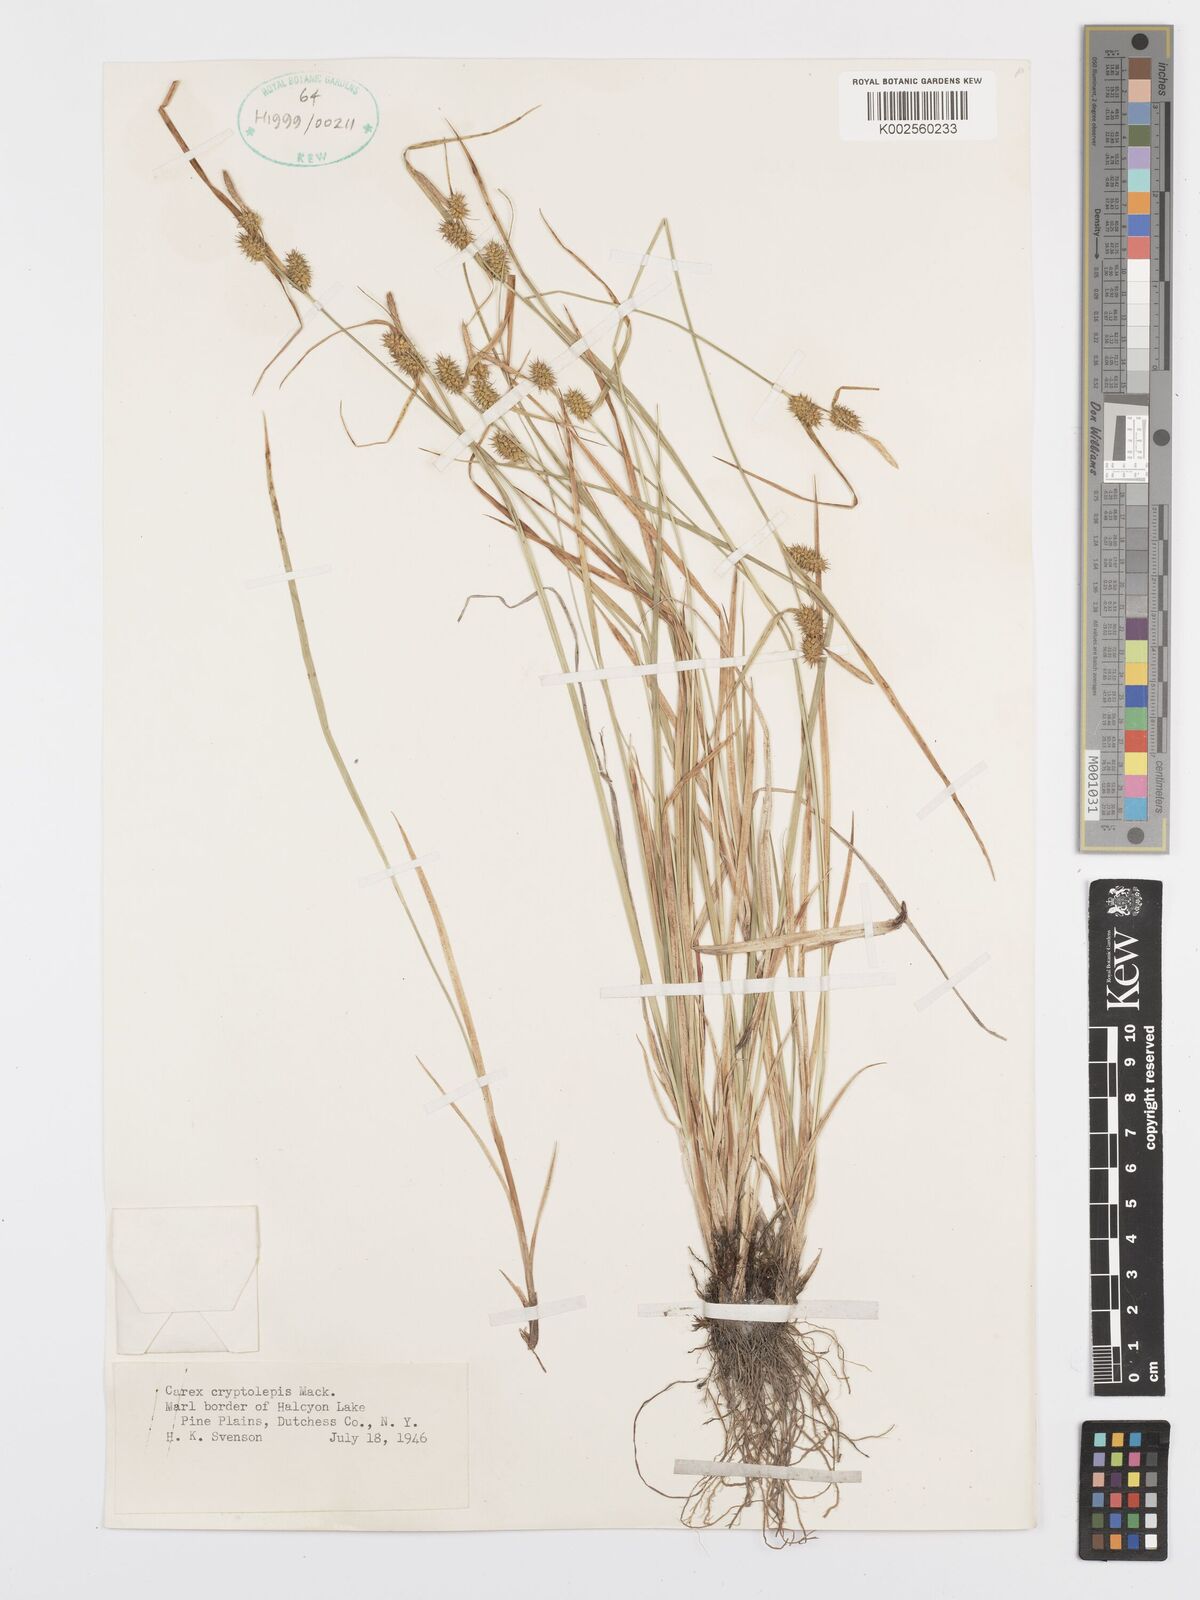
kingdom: Plantae
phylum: Tracheophyta
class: Liliopsida
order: Poales
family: Cyperaceae
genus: Carex
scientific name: Carex cryptolepis
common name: Northeastern sedge
